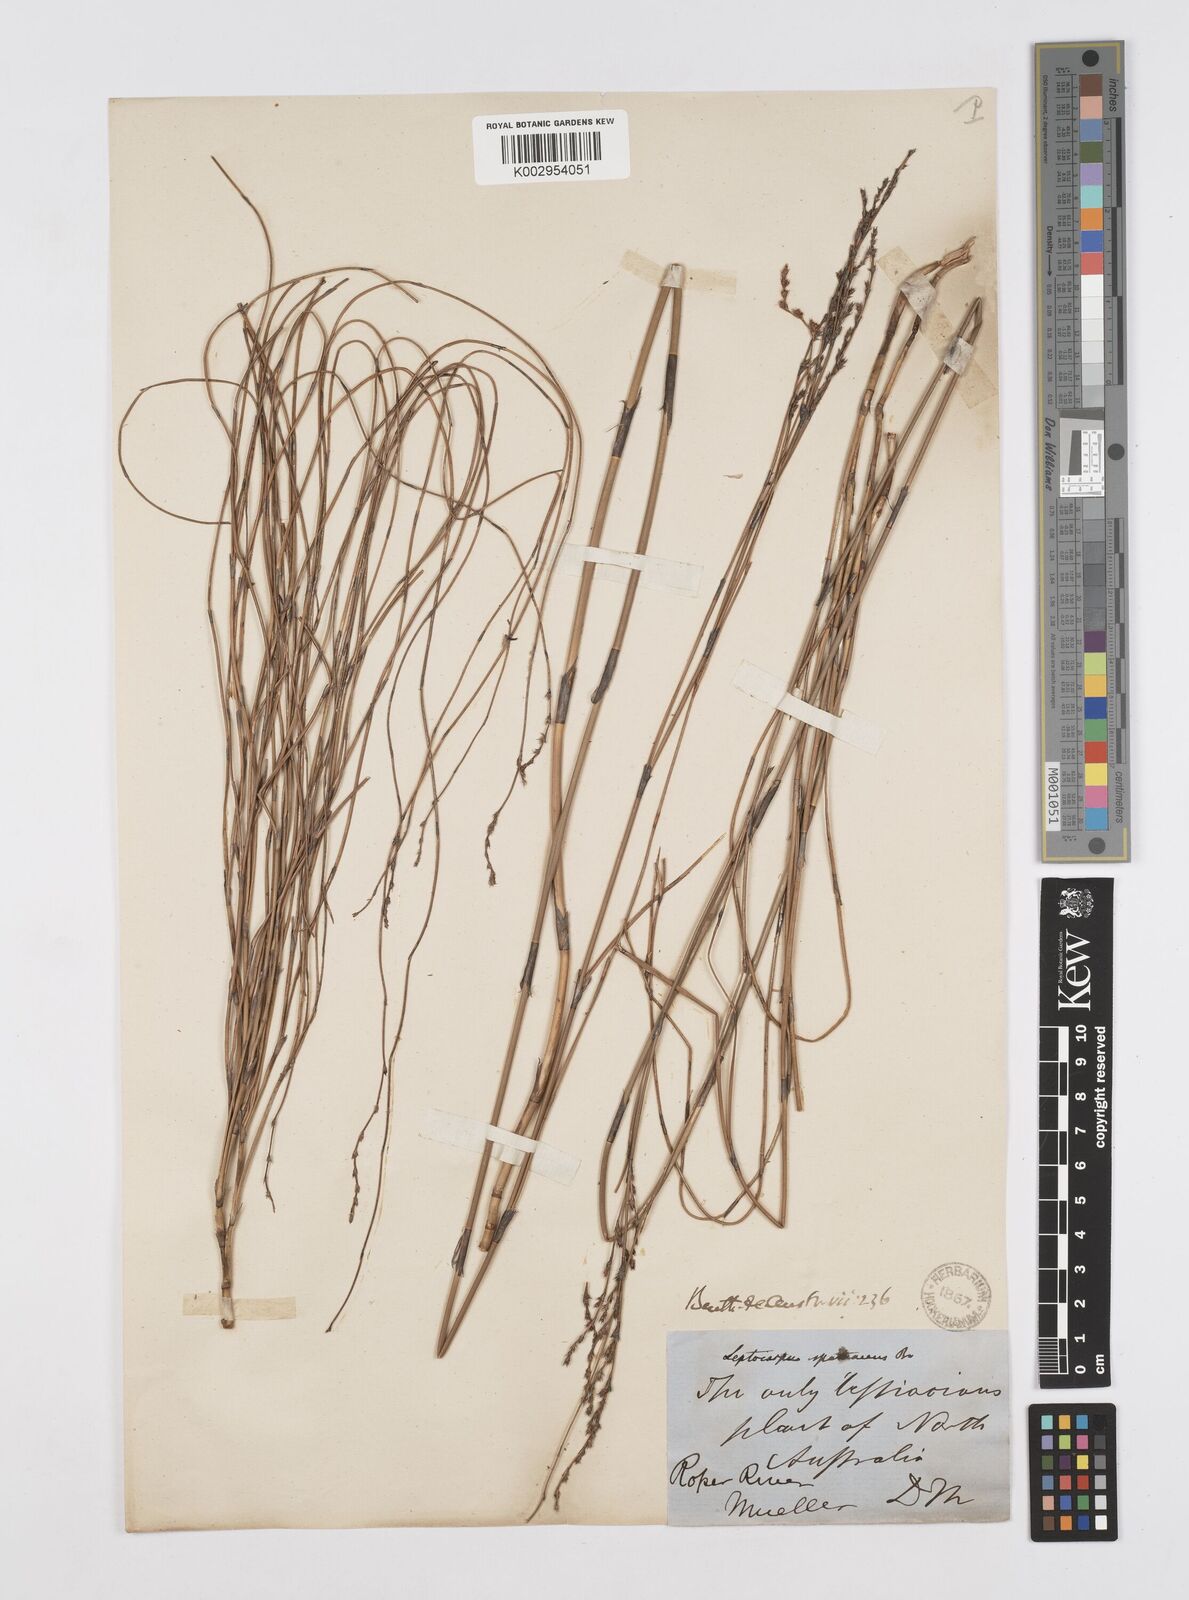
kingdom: Plantae
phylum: Tracheophyta
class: Liliopsida
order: Poales
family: Restionaceae
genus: Dapsilanthus
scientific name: Dapsilanthus spathaceus
